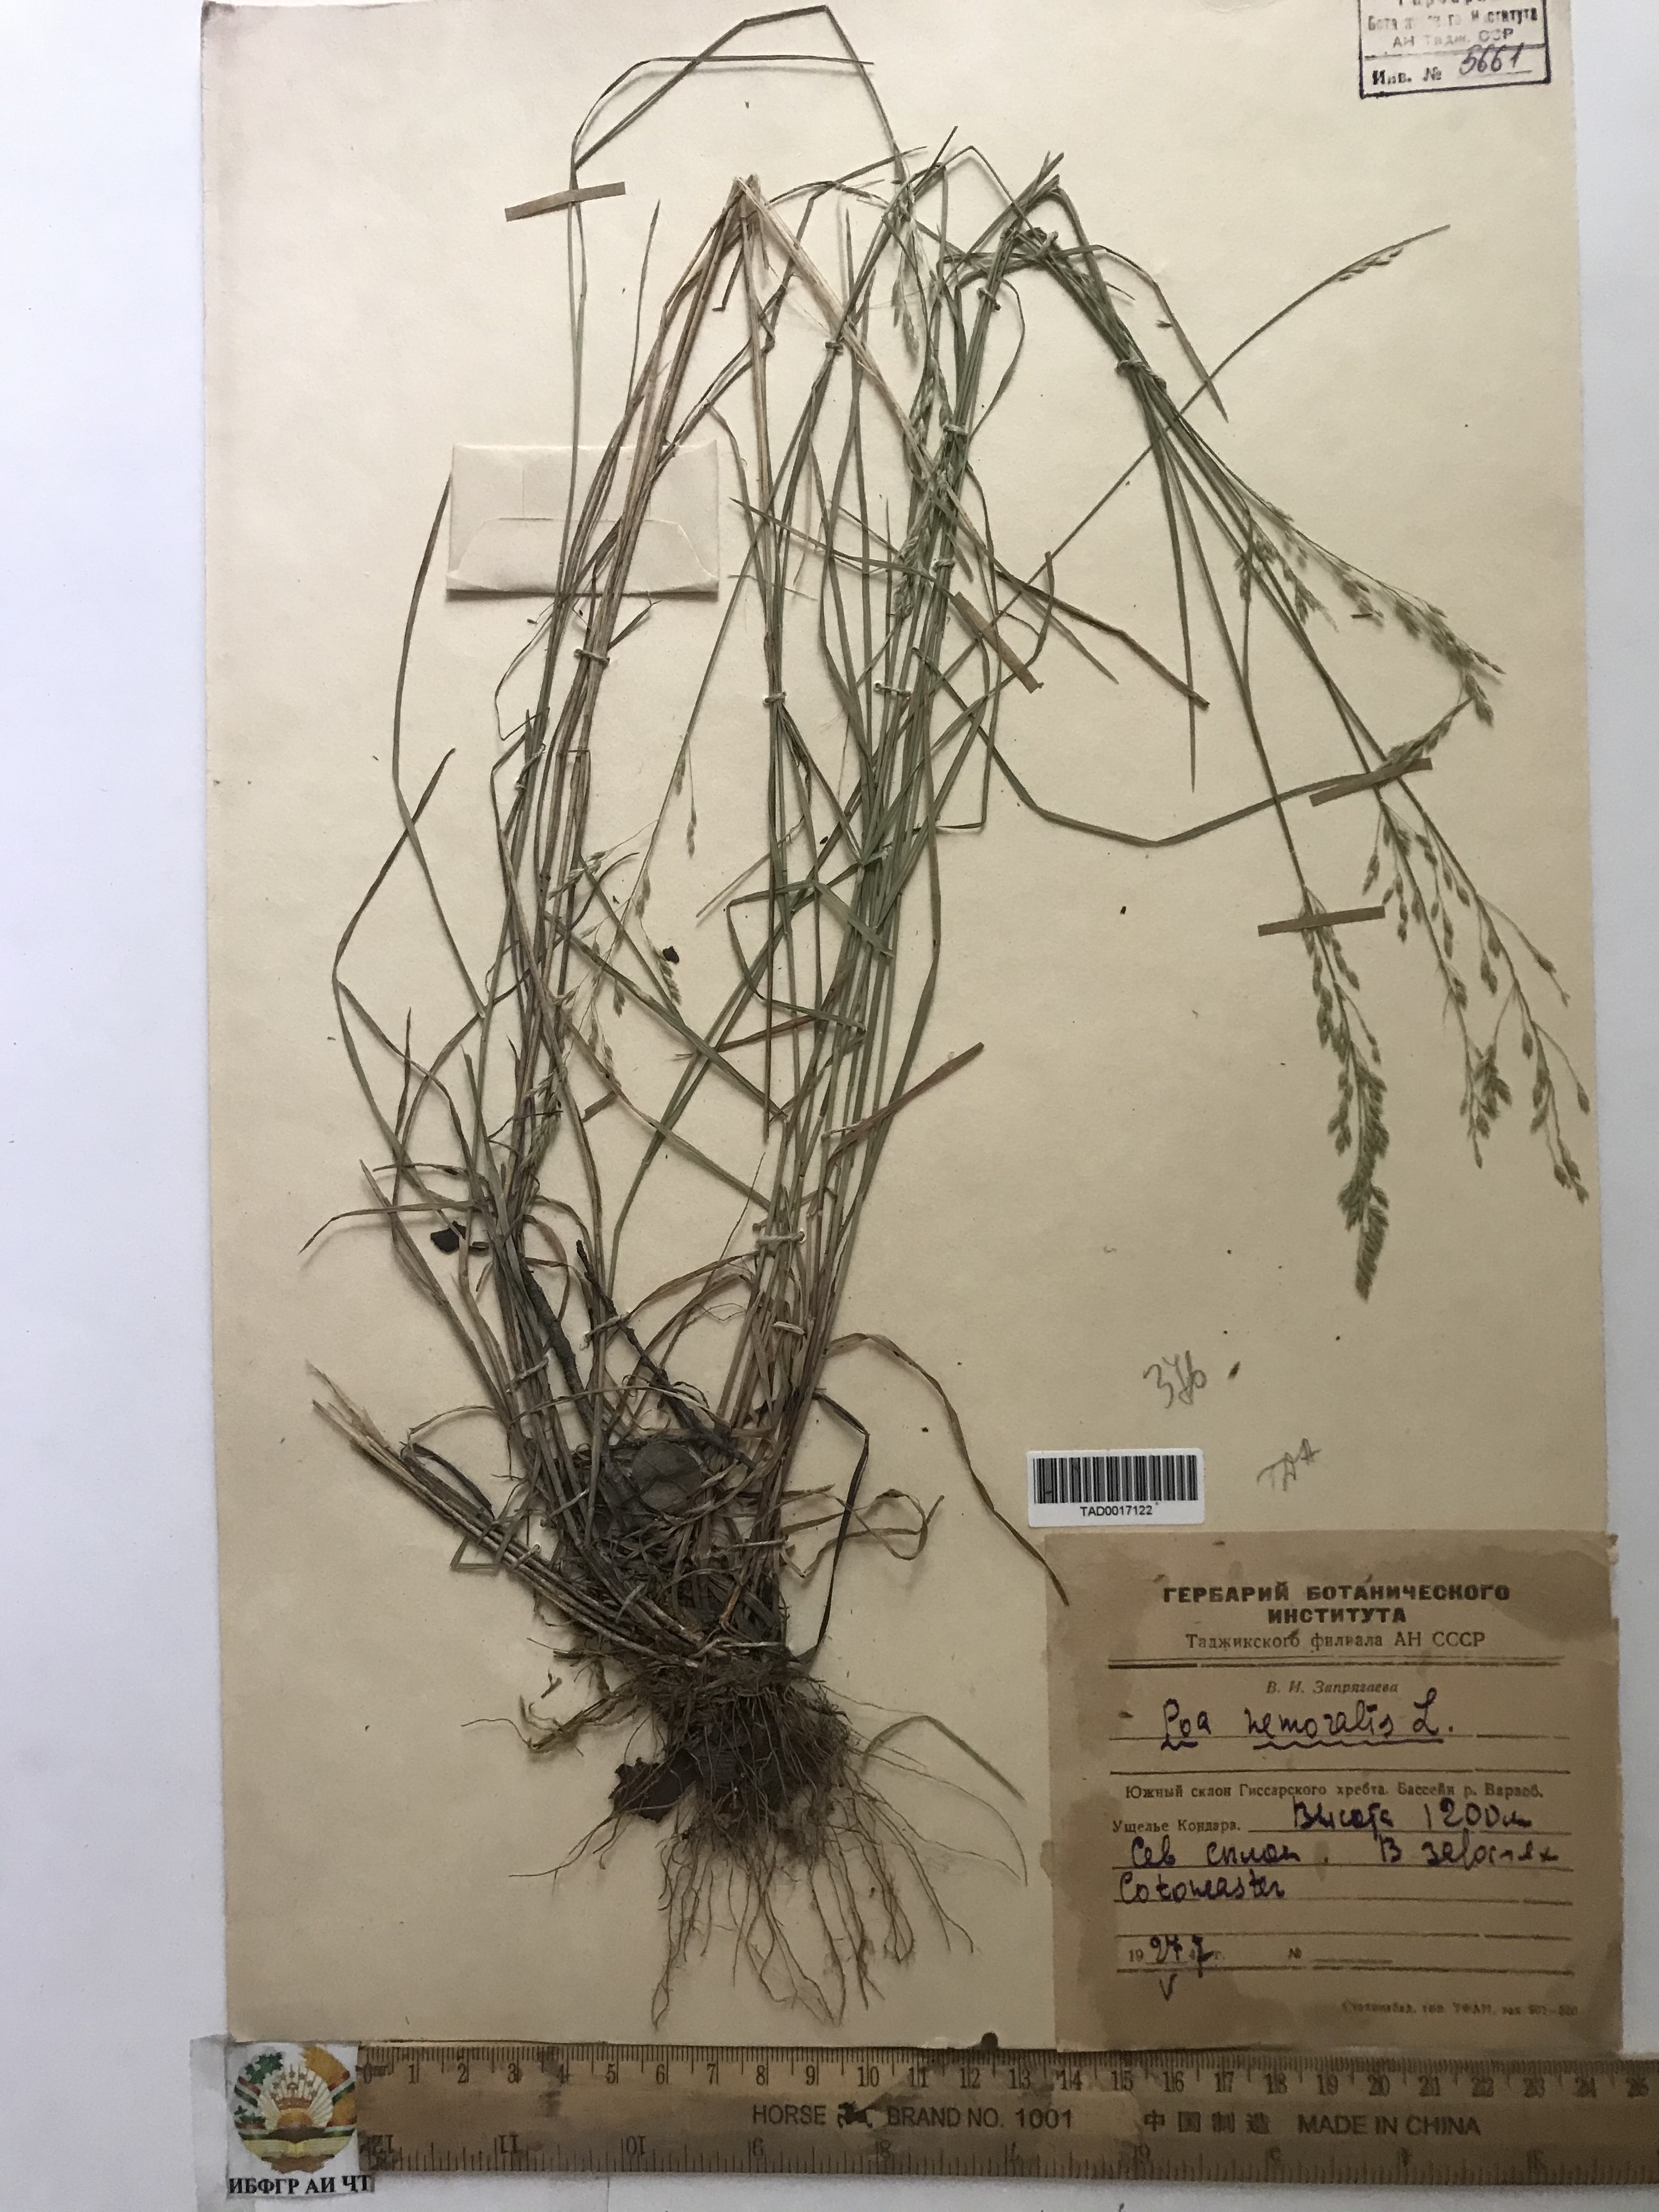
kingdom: Plantae
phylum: Tracheophyta
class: Liliopsida
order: Poales
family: Poaceae
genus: Poa
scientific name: Poa nemoralis
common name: Wood bluegrass
